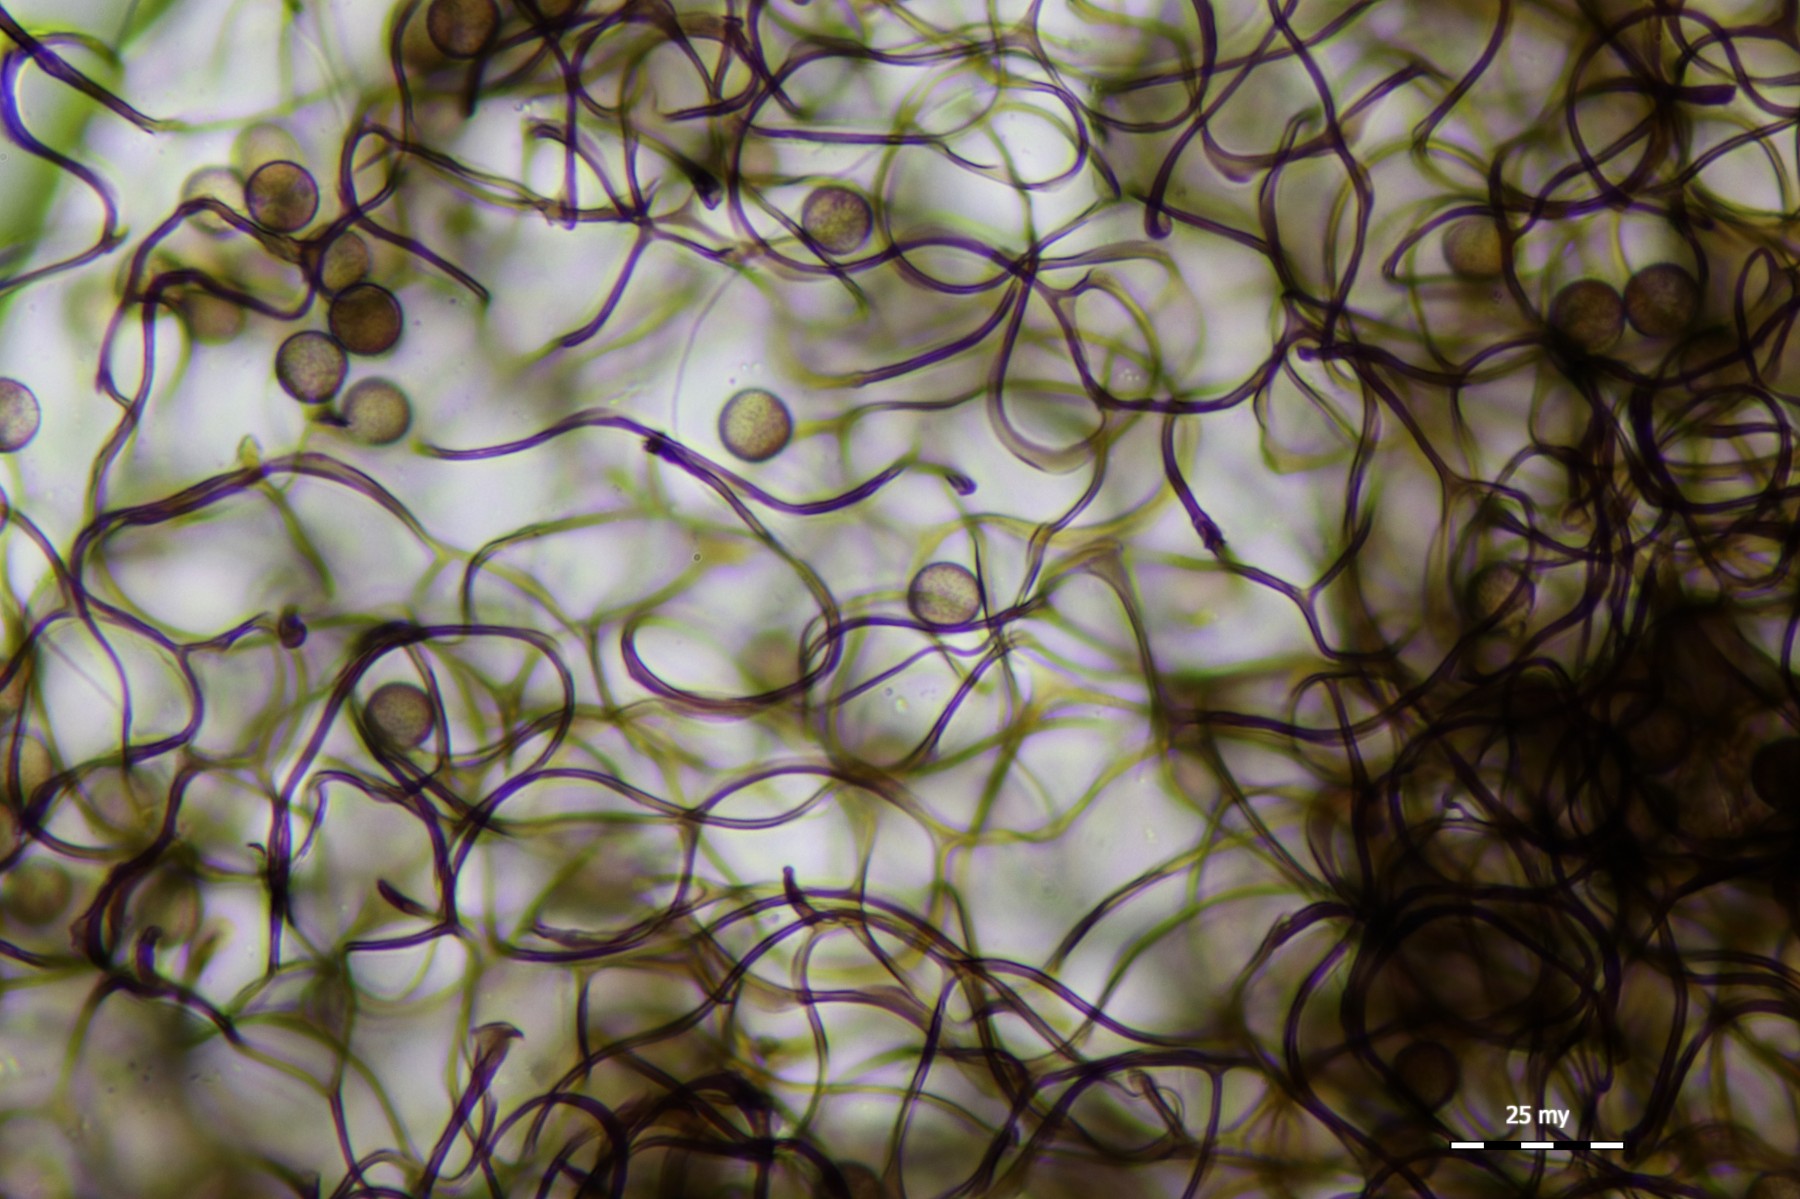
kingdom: Protozoa
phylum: Mycetozoa
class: Myxomycetes
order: Stemonitidales
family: Stemonitidaceae
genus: Comatricha
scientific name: Comatricha alta
